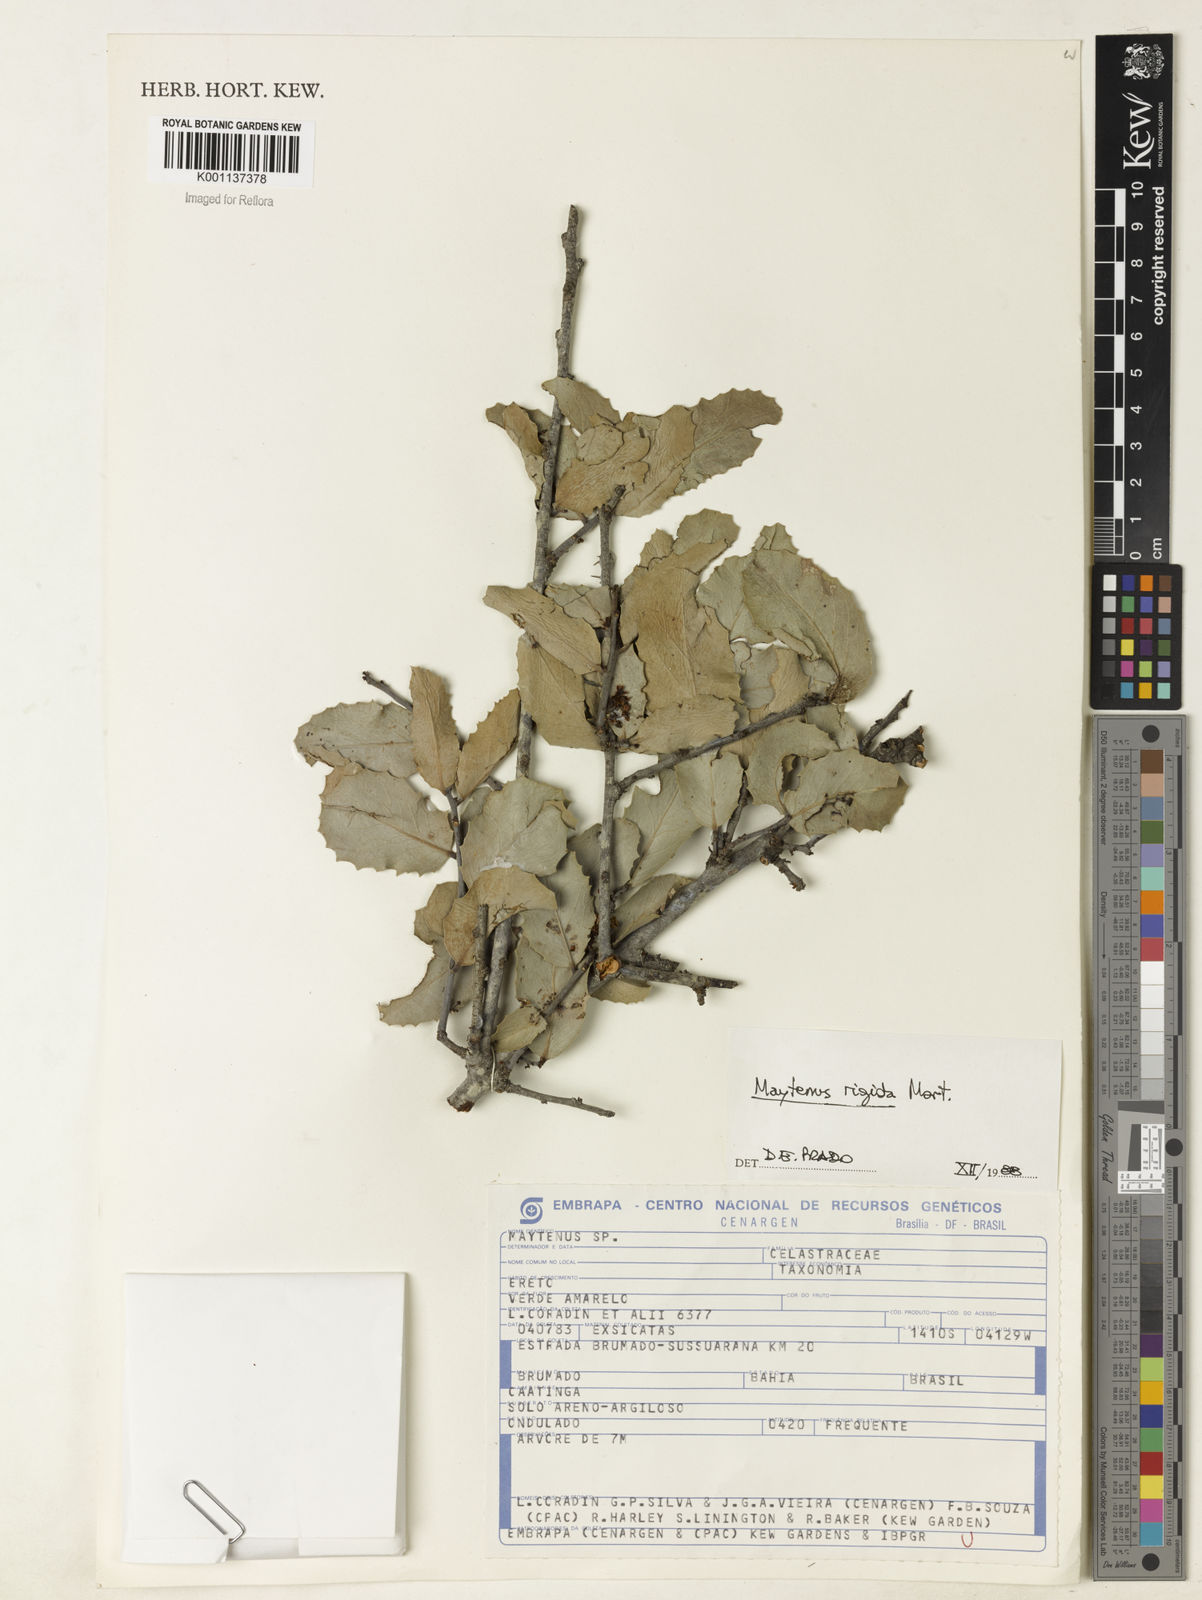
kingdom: Plantae
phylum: Tracheophyta
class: Magnoliopsida
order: Celastrales
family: Celastraceae
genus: Monteverdia
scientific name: Monteverdia rigida
